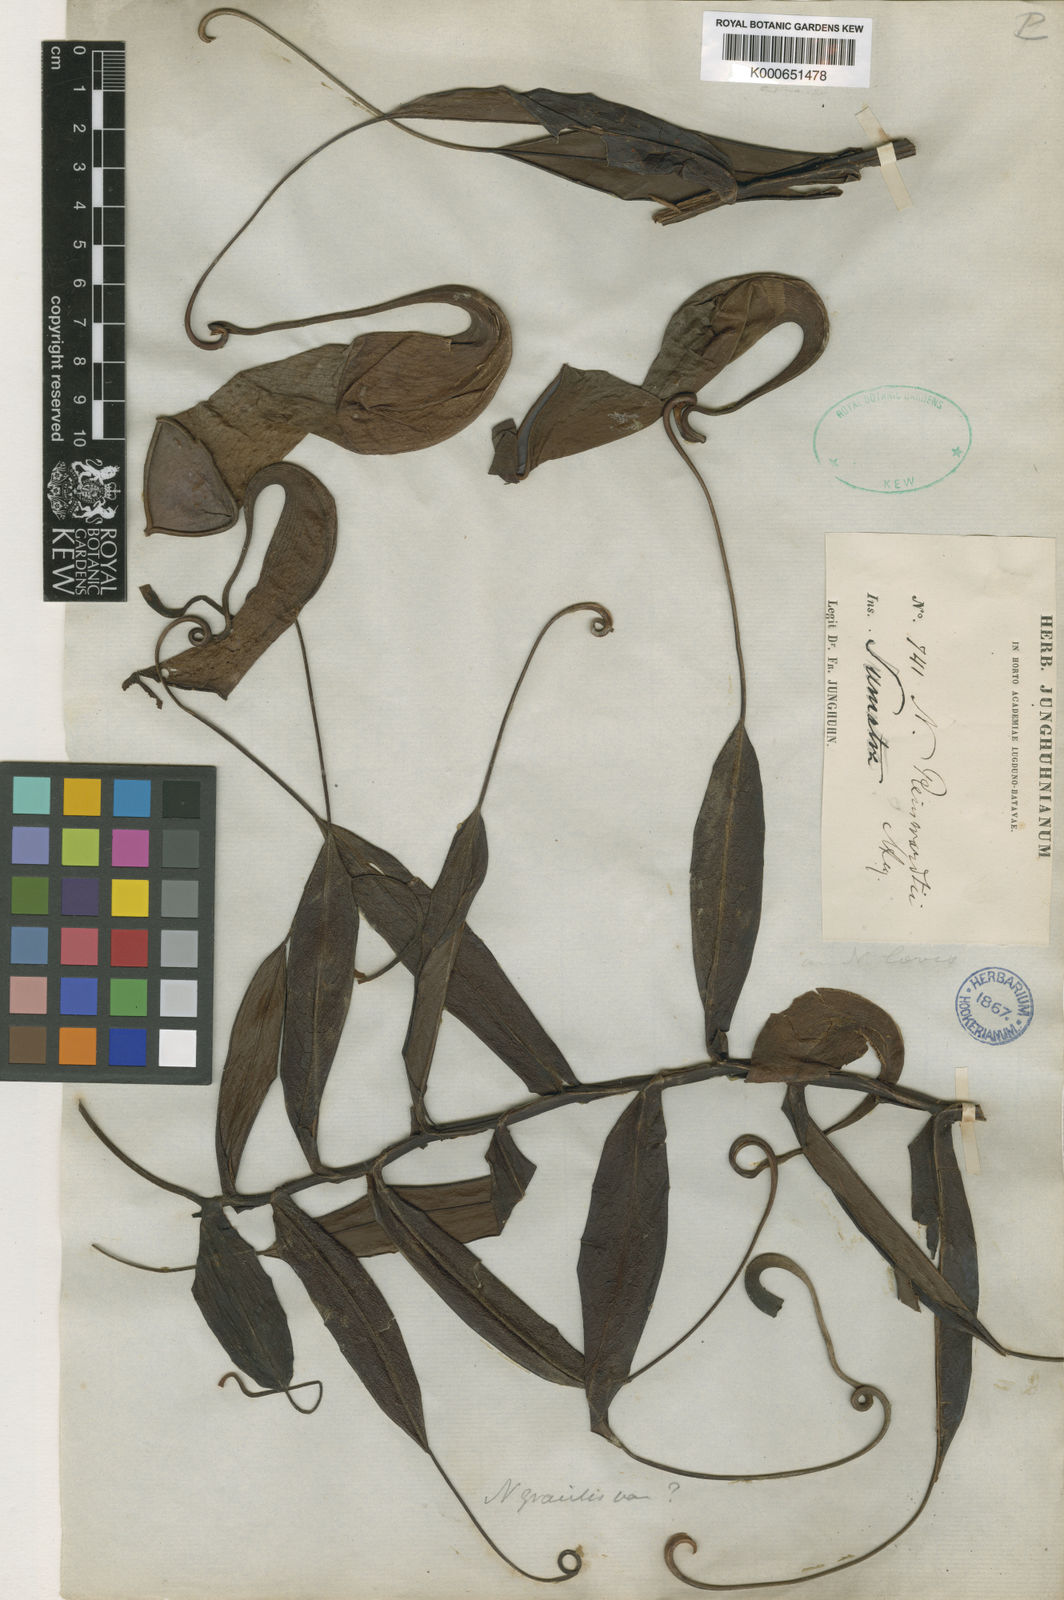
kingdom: Plantae
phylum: Tracheophyta
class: Magnoliopsida
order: Caryophyllales
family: Nepenthaceae
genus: Nepenthes
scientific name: Nepenthes reinwardtiana
